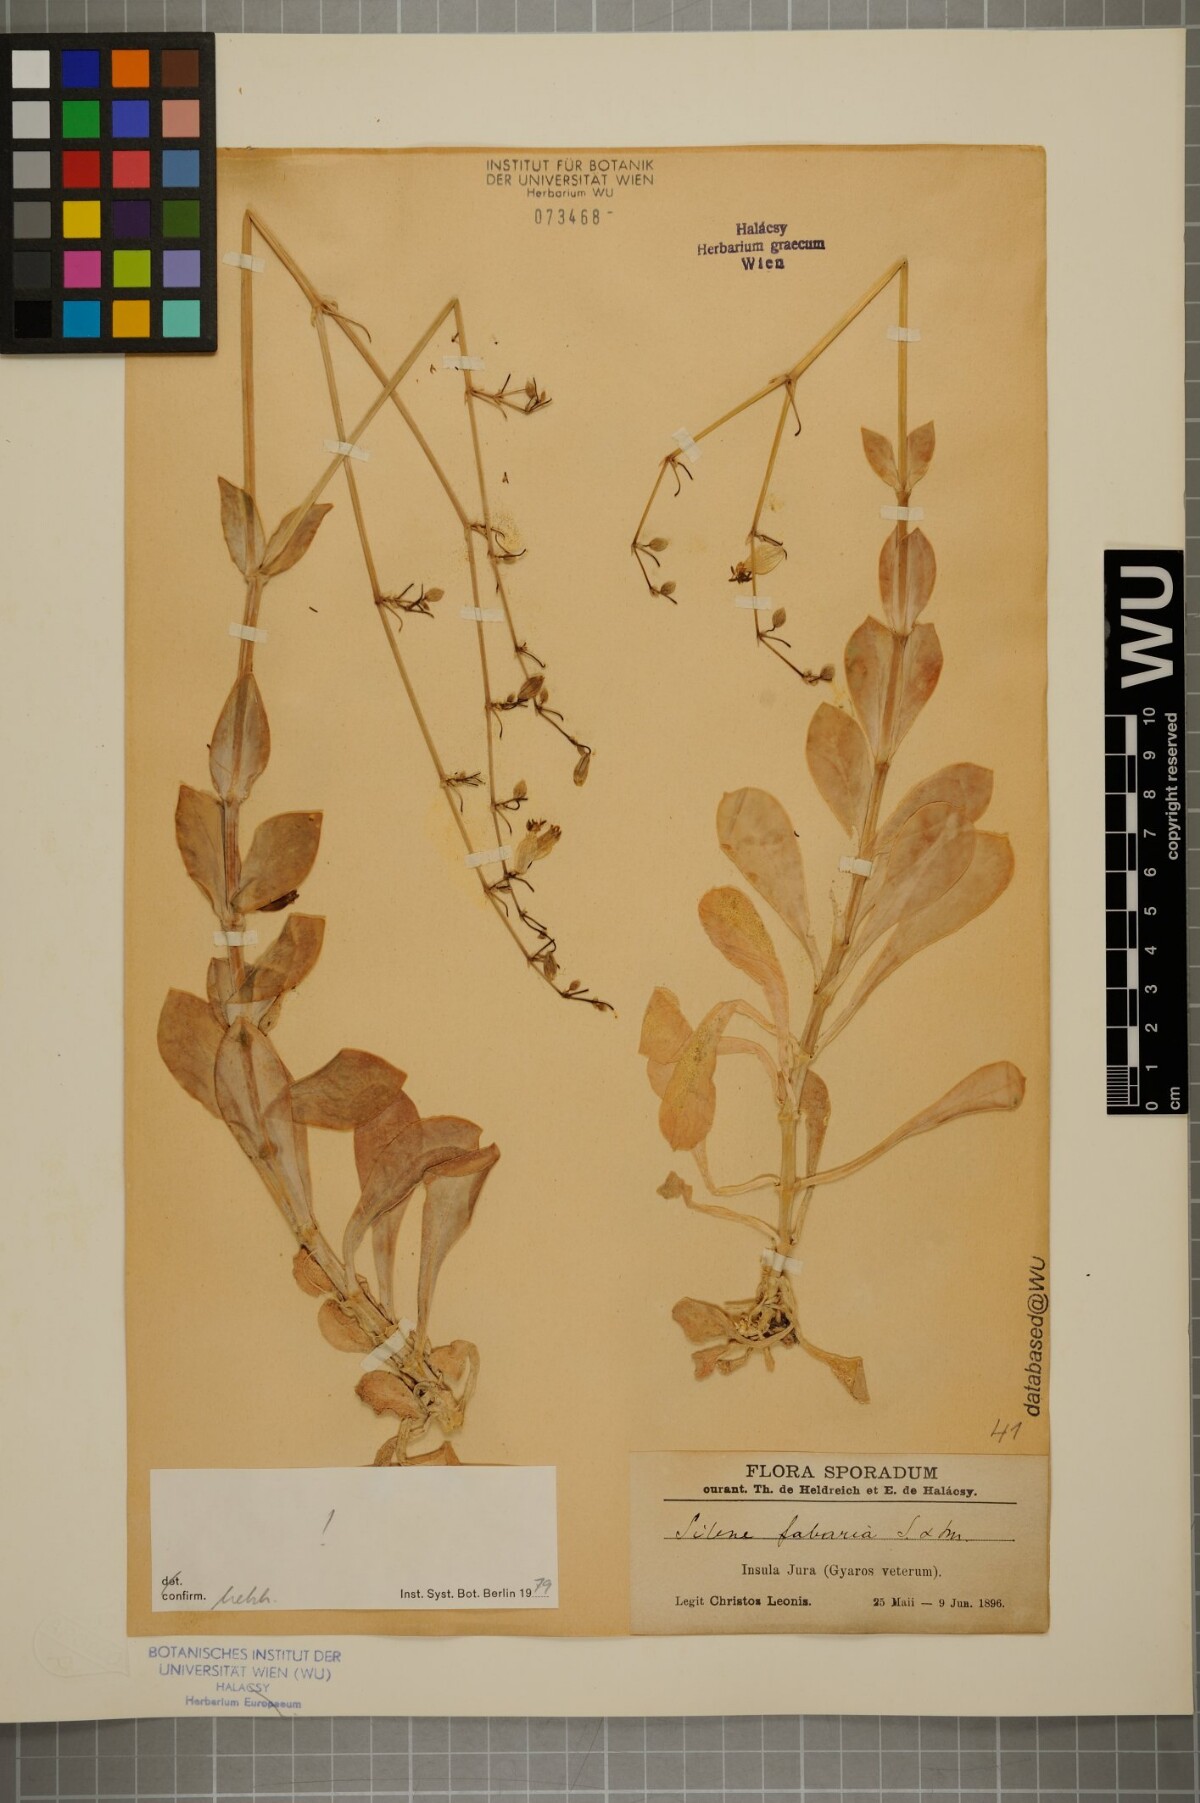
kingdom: Plantae
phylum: Tracheophyta
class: Magnoliopsida
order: Caryophyllales
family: Caryophyllaceae
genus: Silene
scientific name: Silene fabaria
